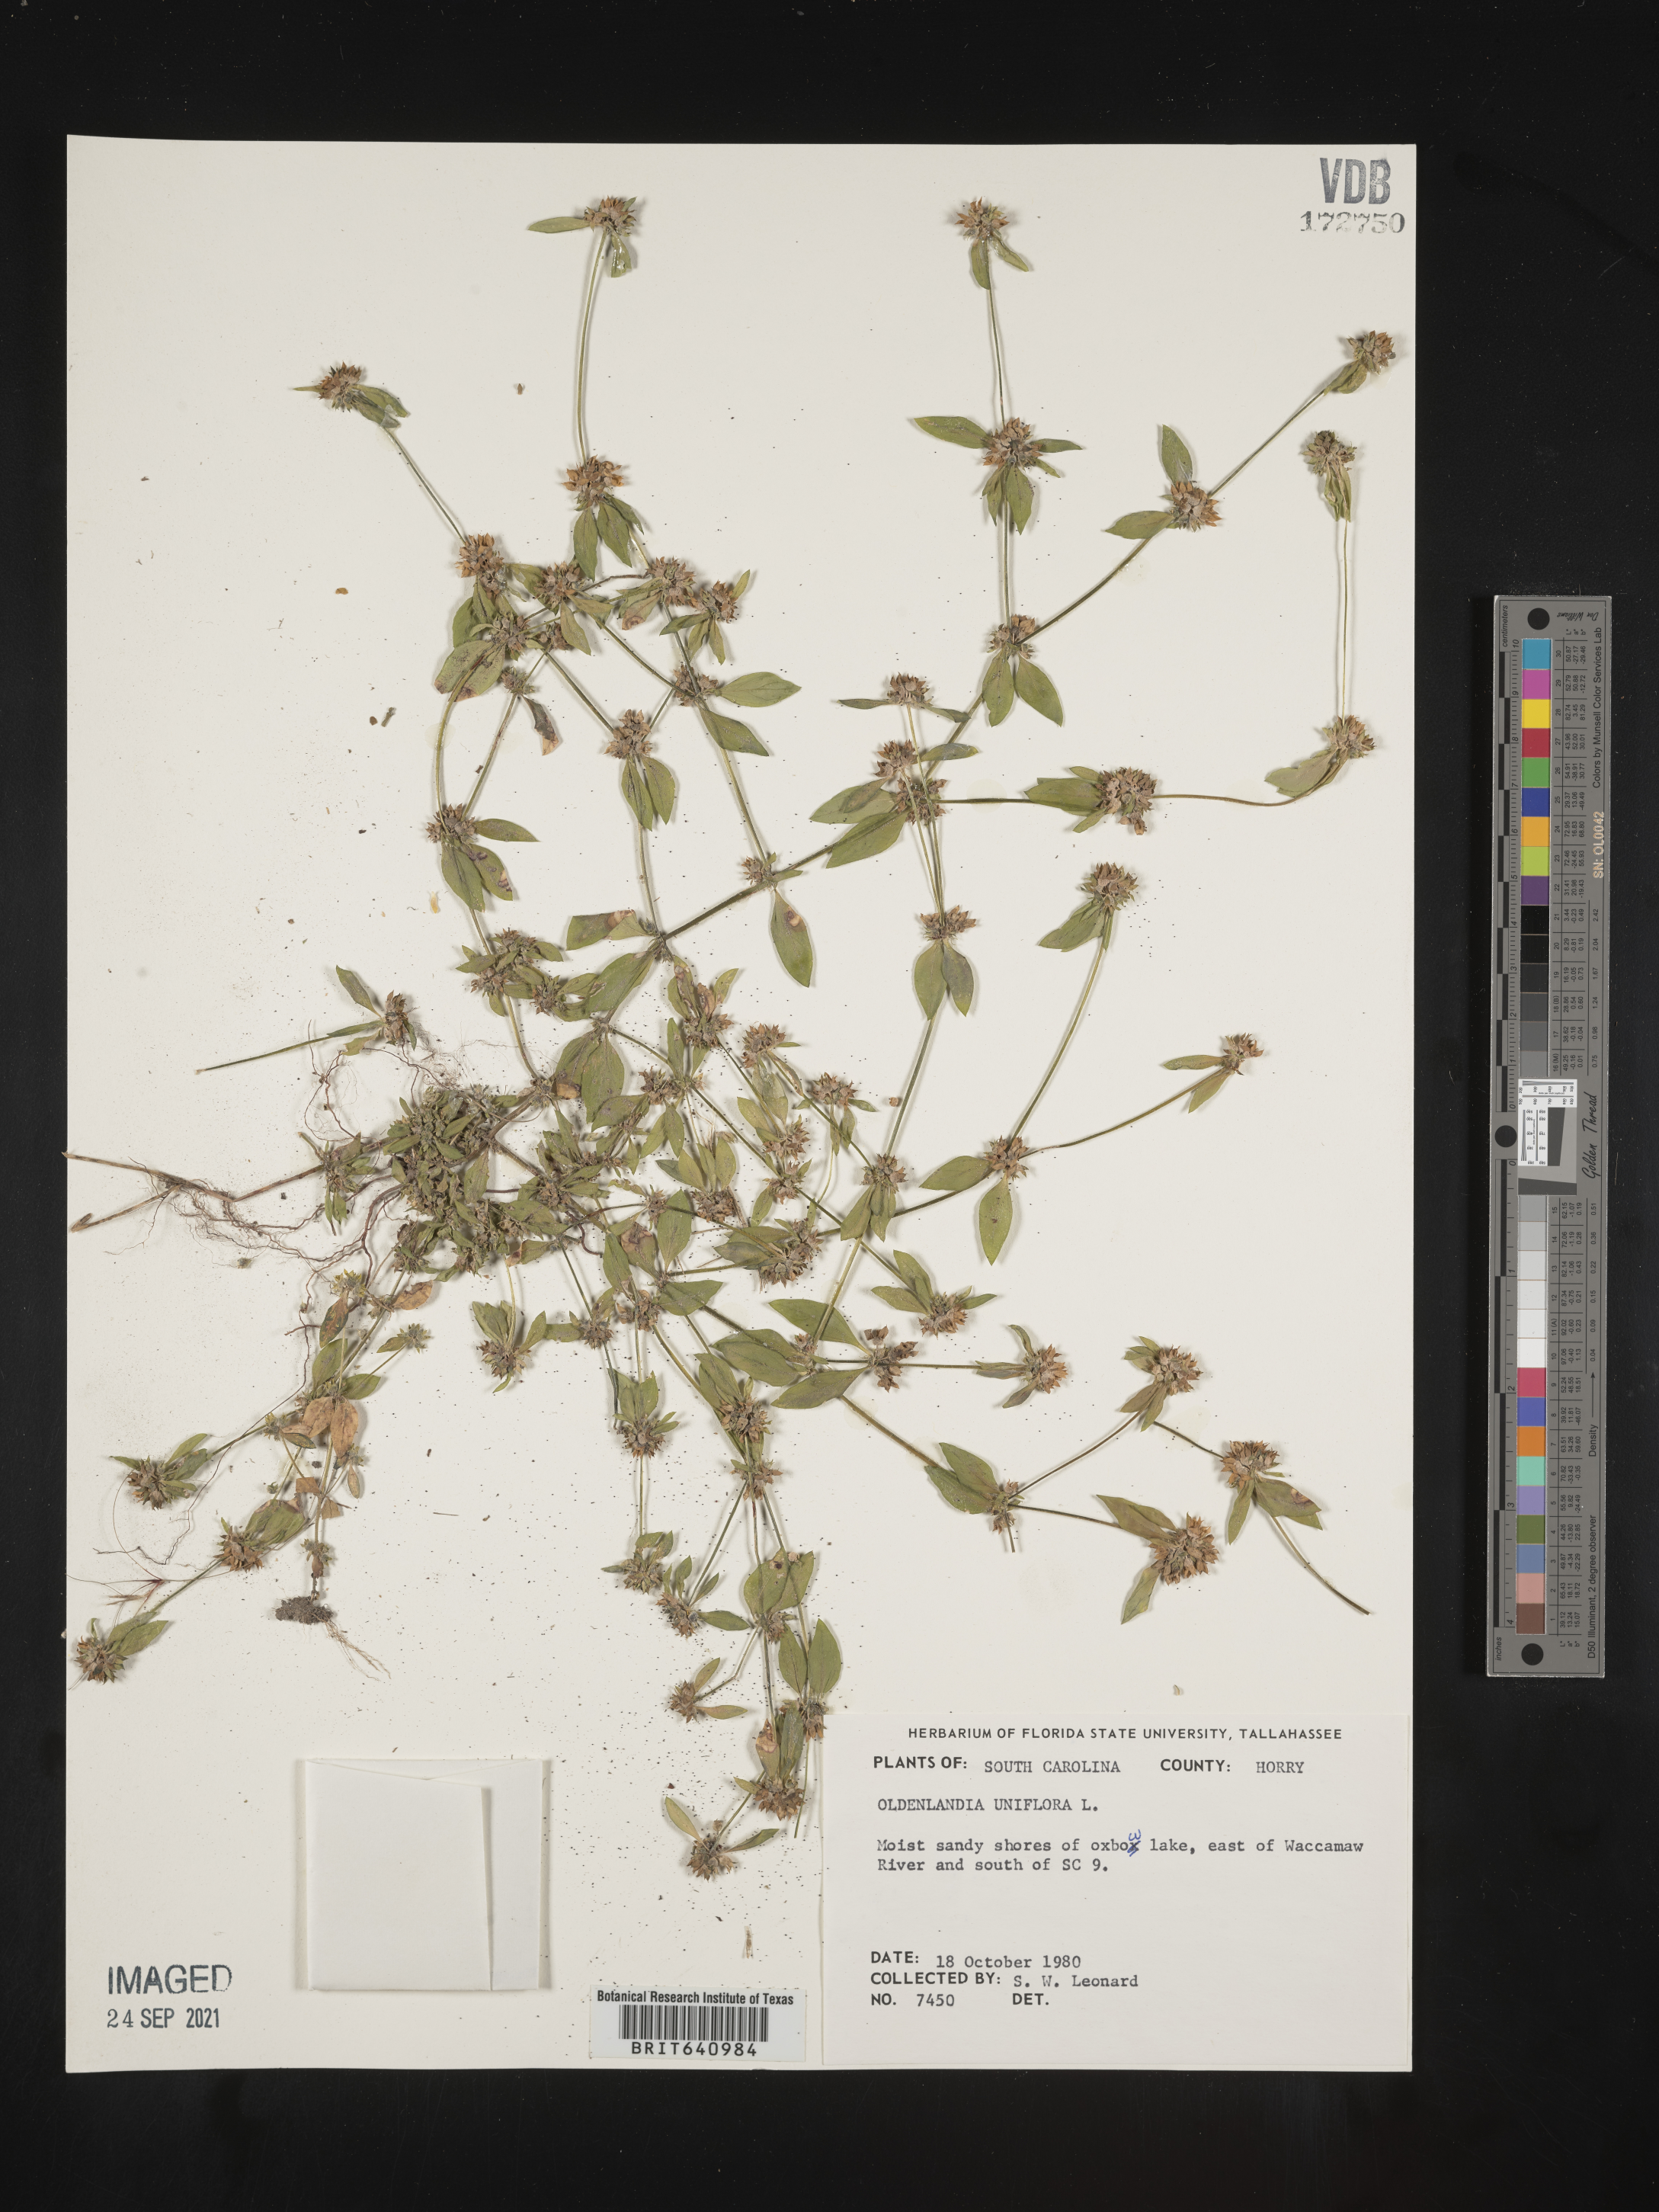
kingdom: Plantae
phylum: Tracheophyta
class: Magnoliopsida
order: Gentianales
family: Rubiaceae
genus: Edrastima
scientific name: Edrastima uniflora
